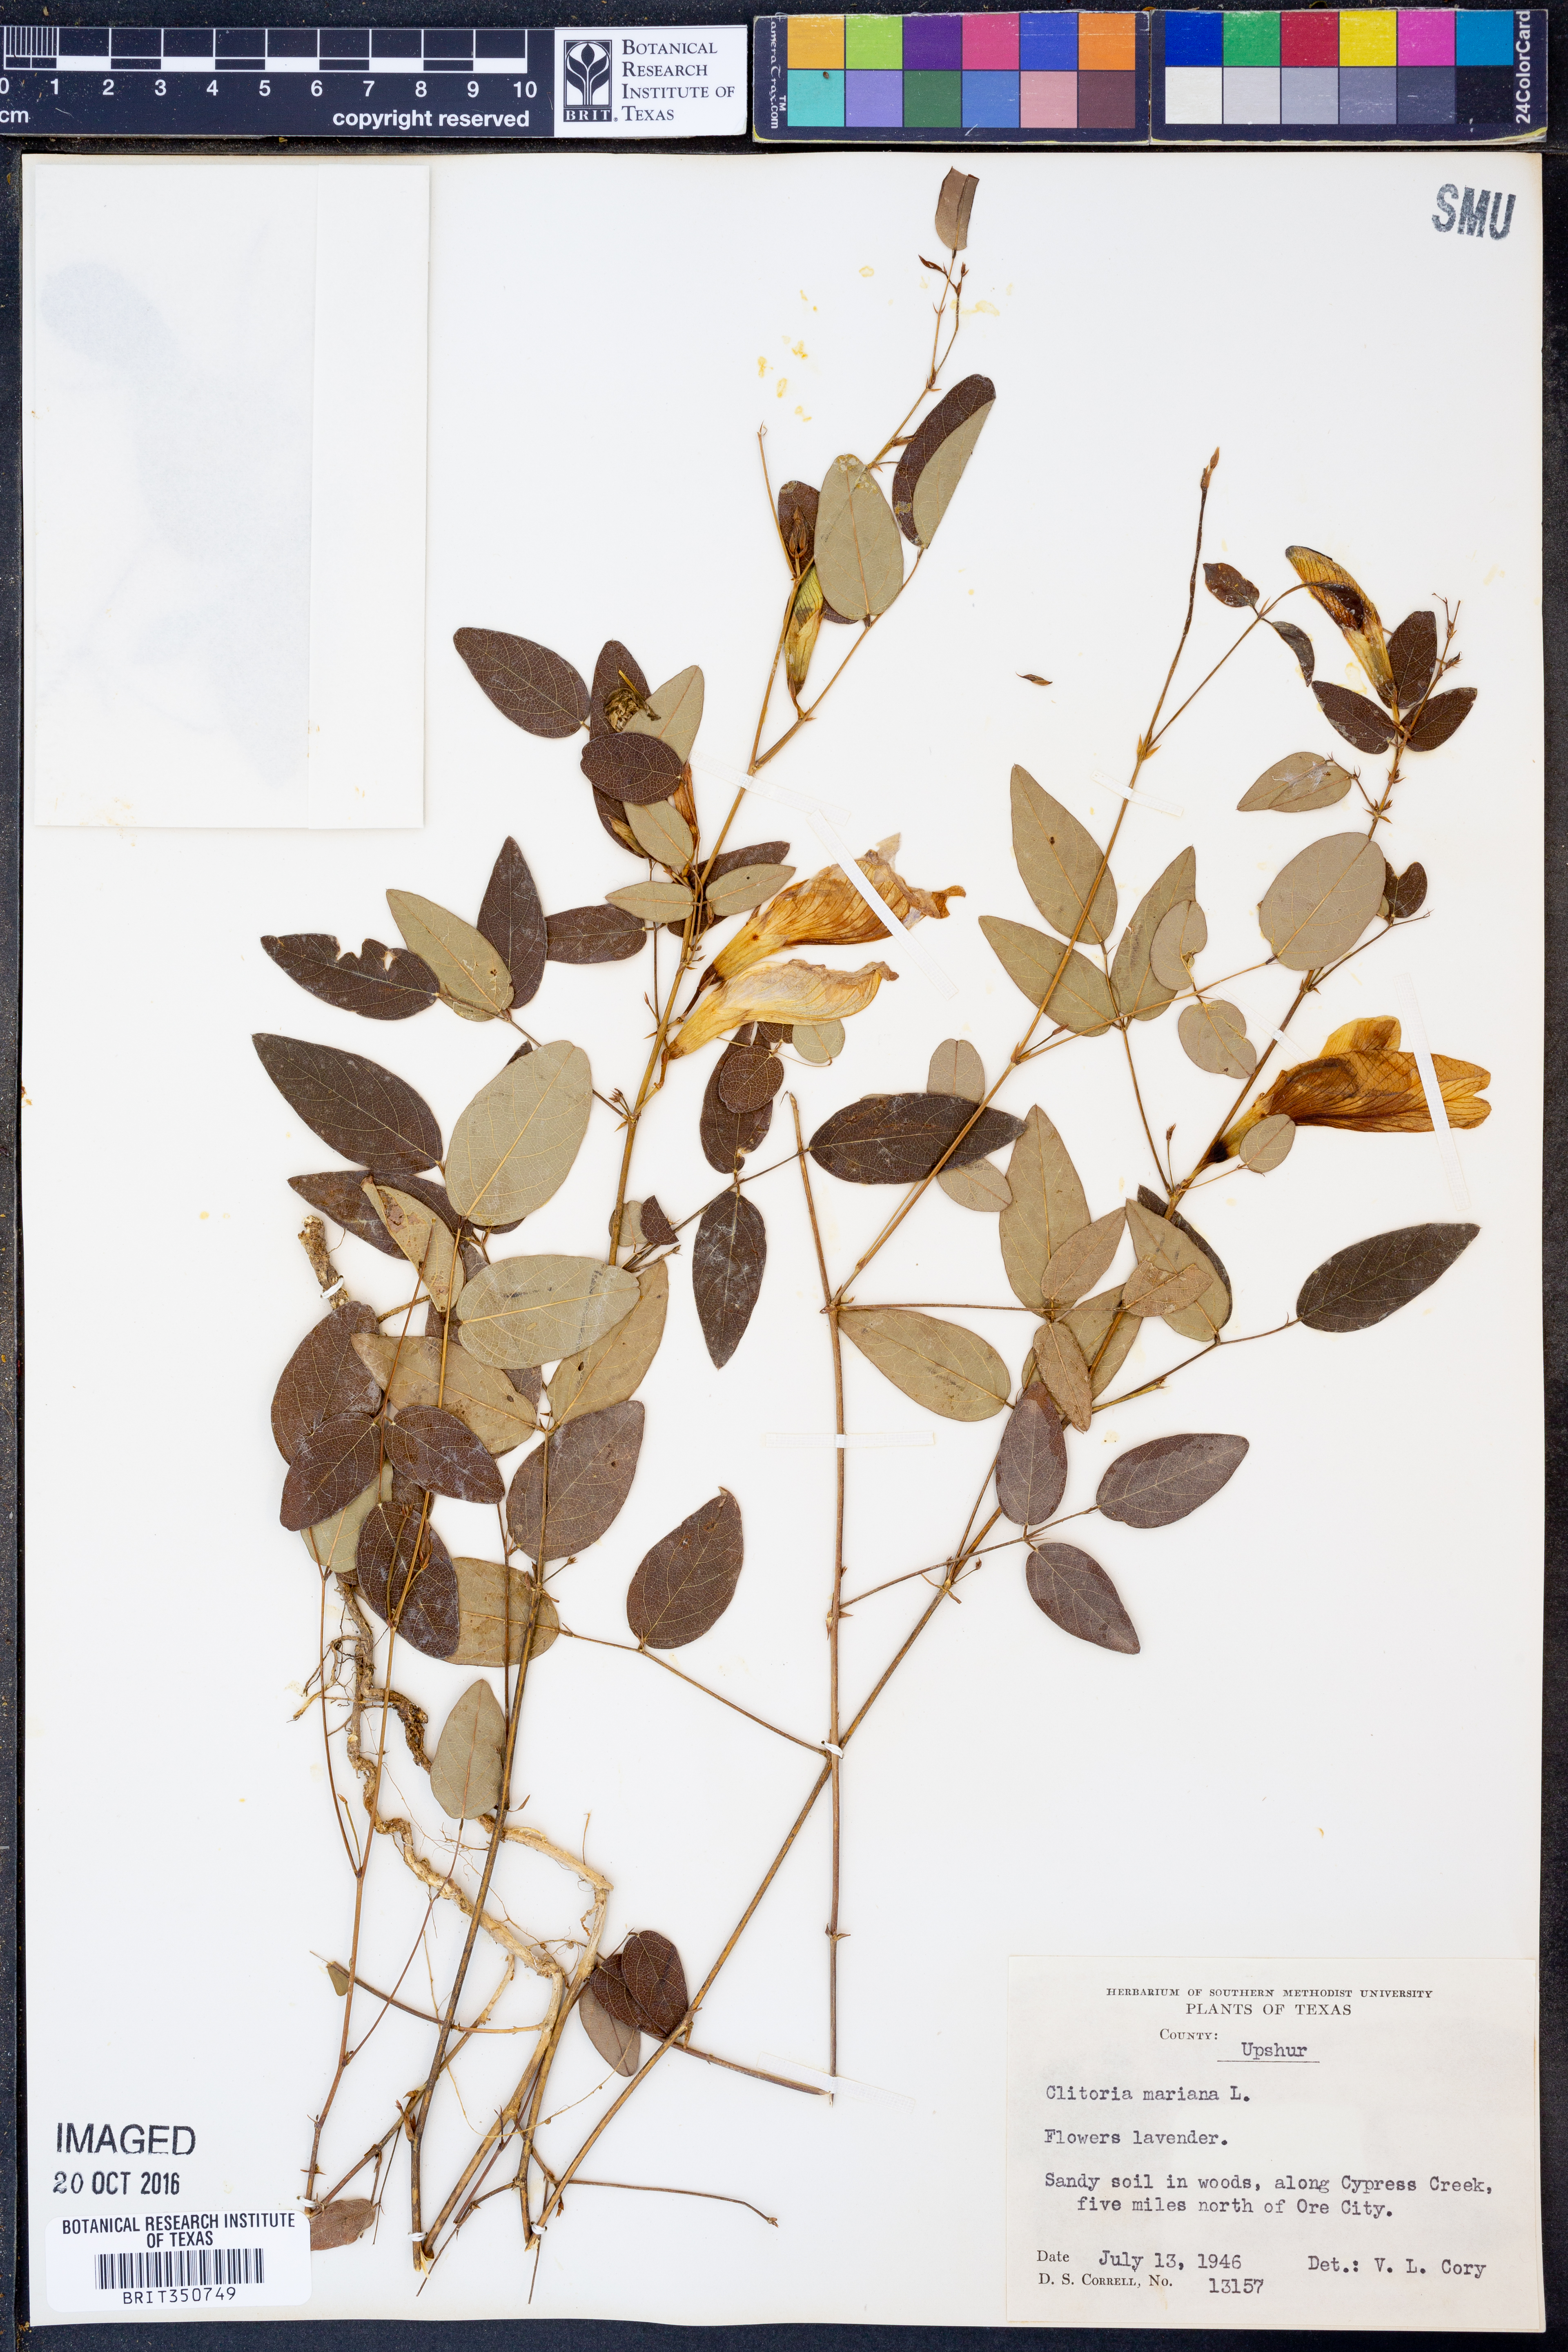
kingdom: Plantae
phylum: Tracheophyta
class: Magnoliopsida
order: Fabales
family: Fabaceae
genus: Clitoria
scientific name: Clitoria mariana
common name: Butterfly-pea
